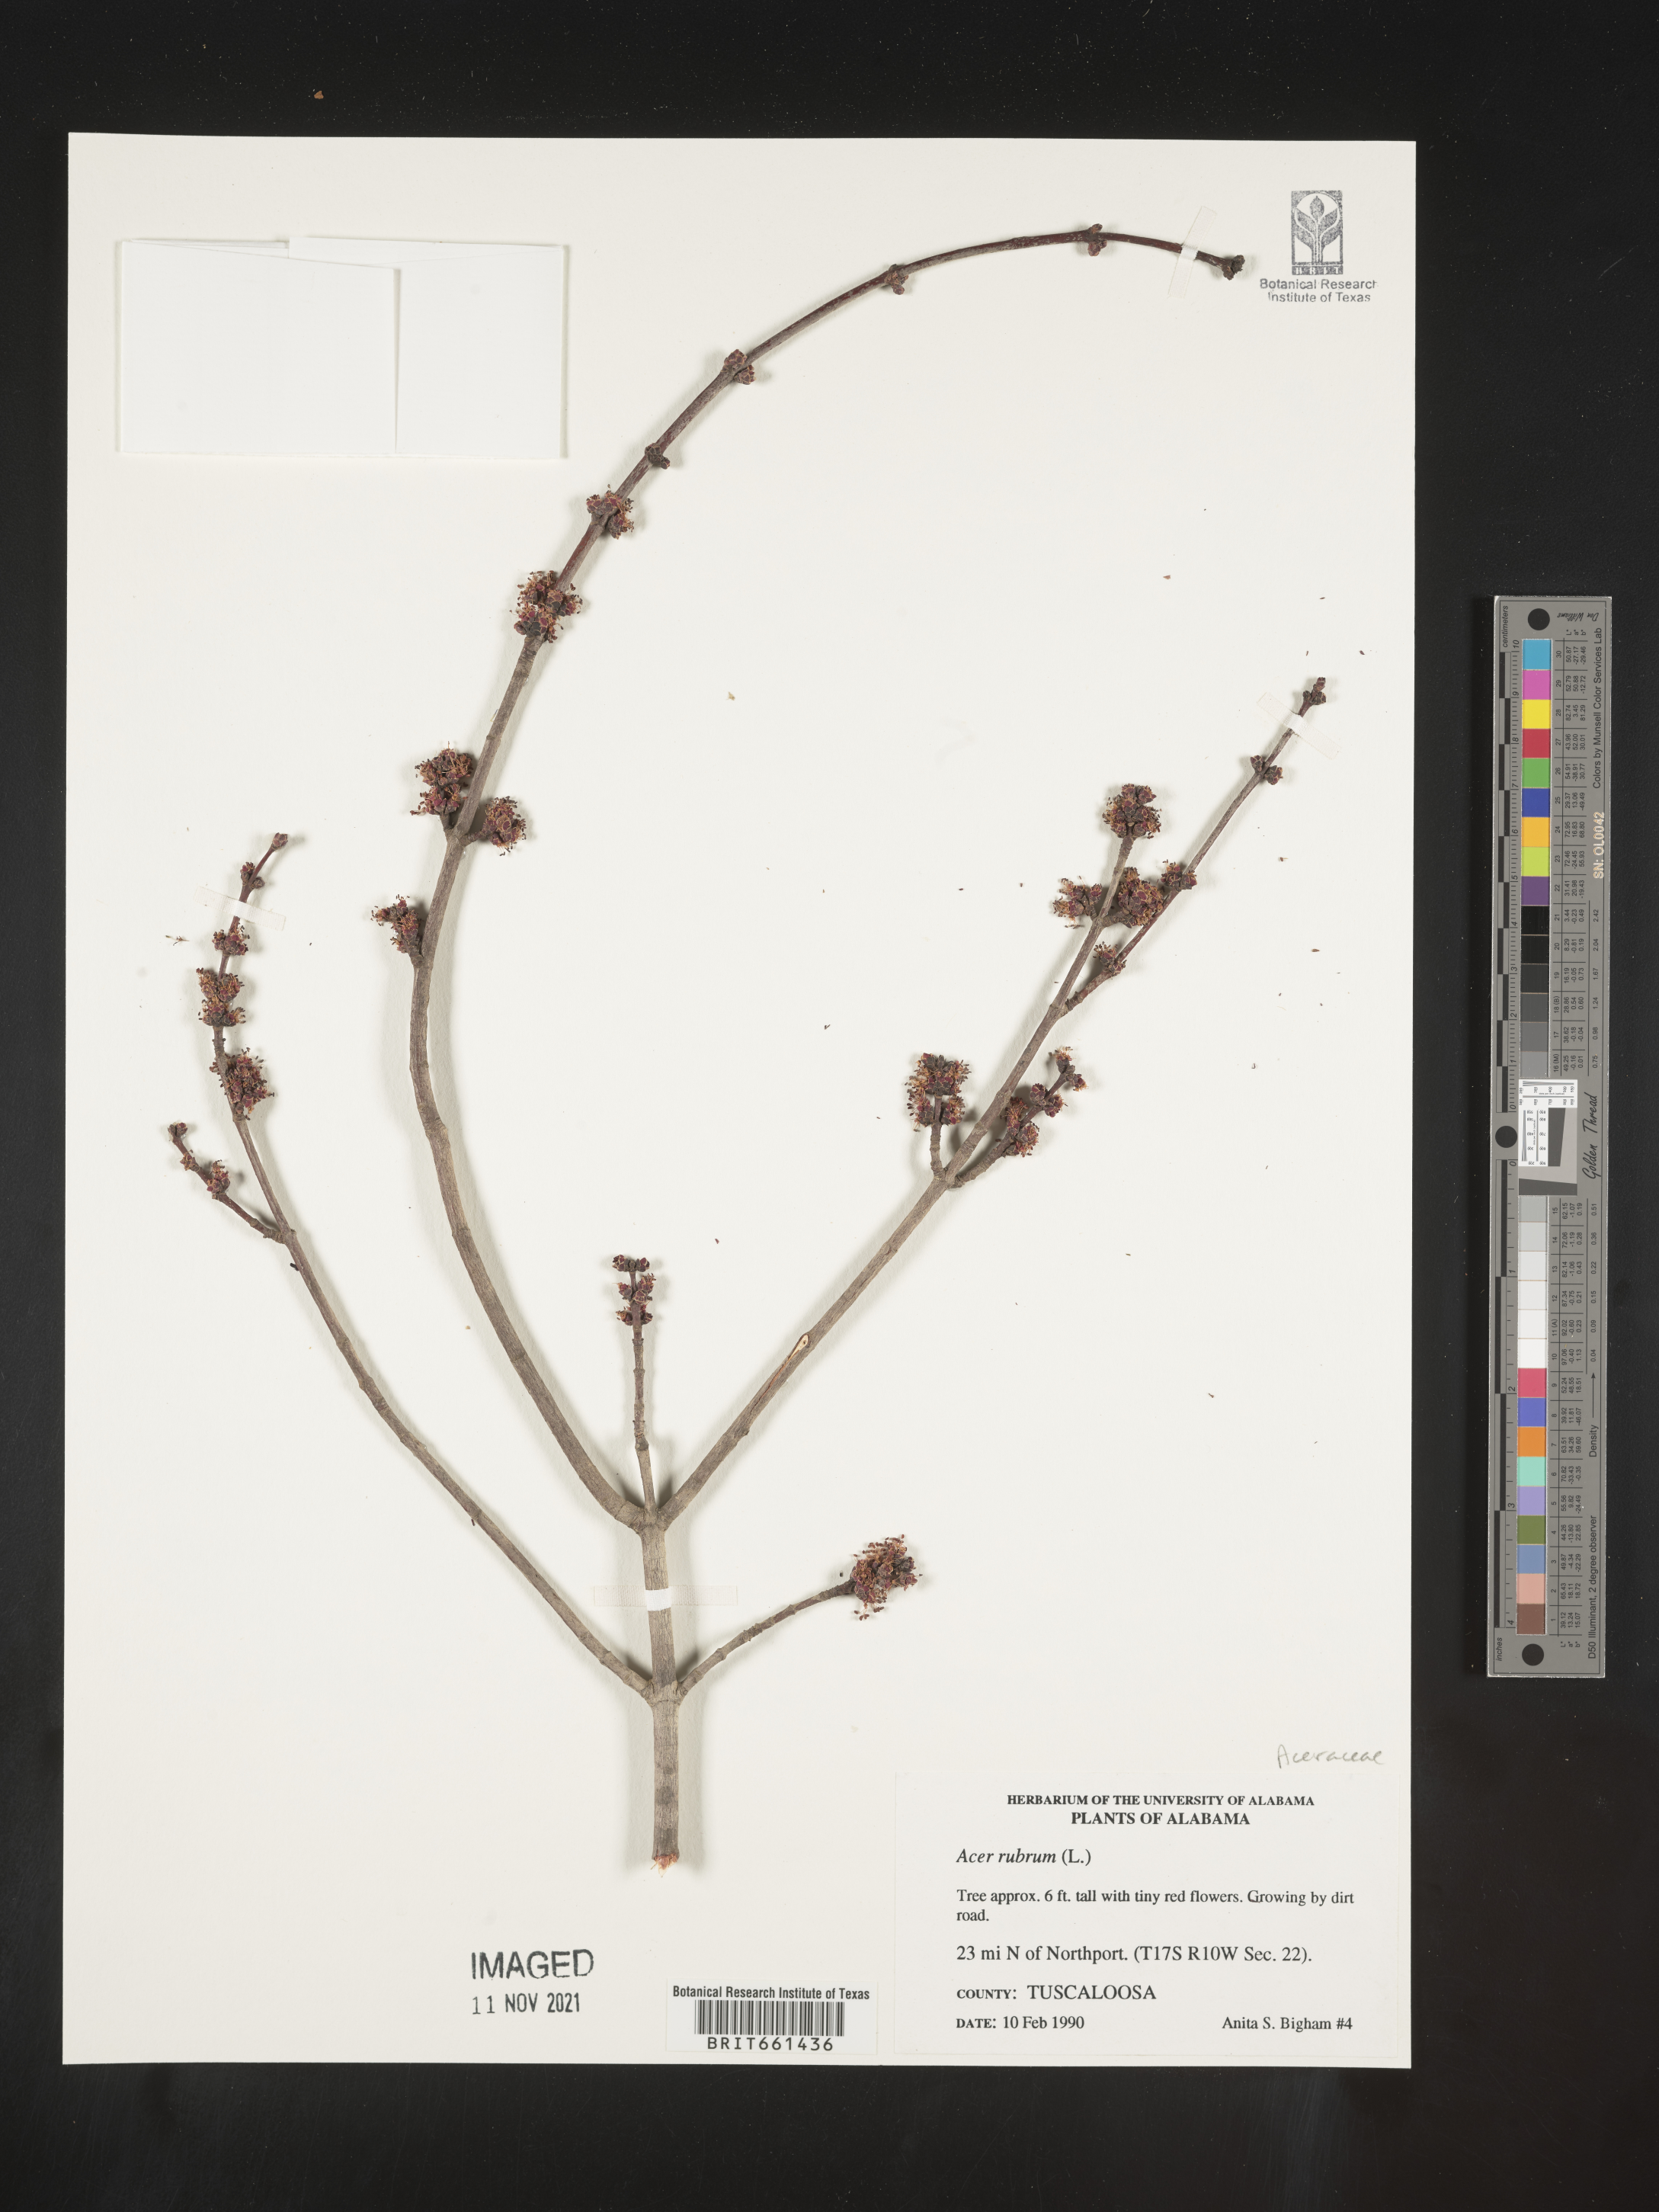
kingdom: Plantae
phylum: Tracheophyta
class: Magnoliopsida
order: Sapindales
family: Sapindaceae
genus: Acer
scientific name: Acer rubrum
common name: Red maple
